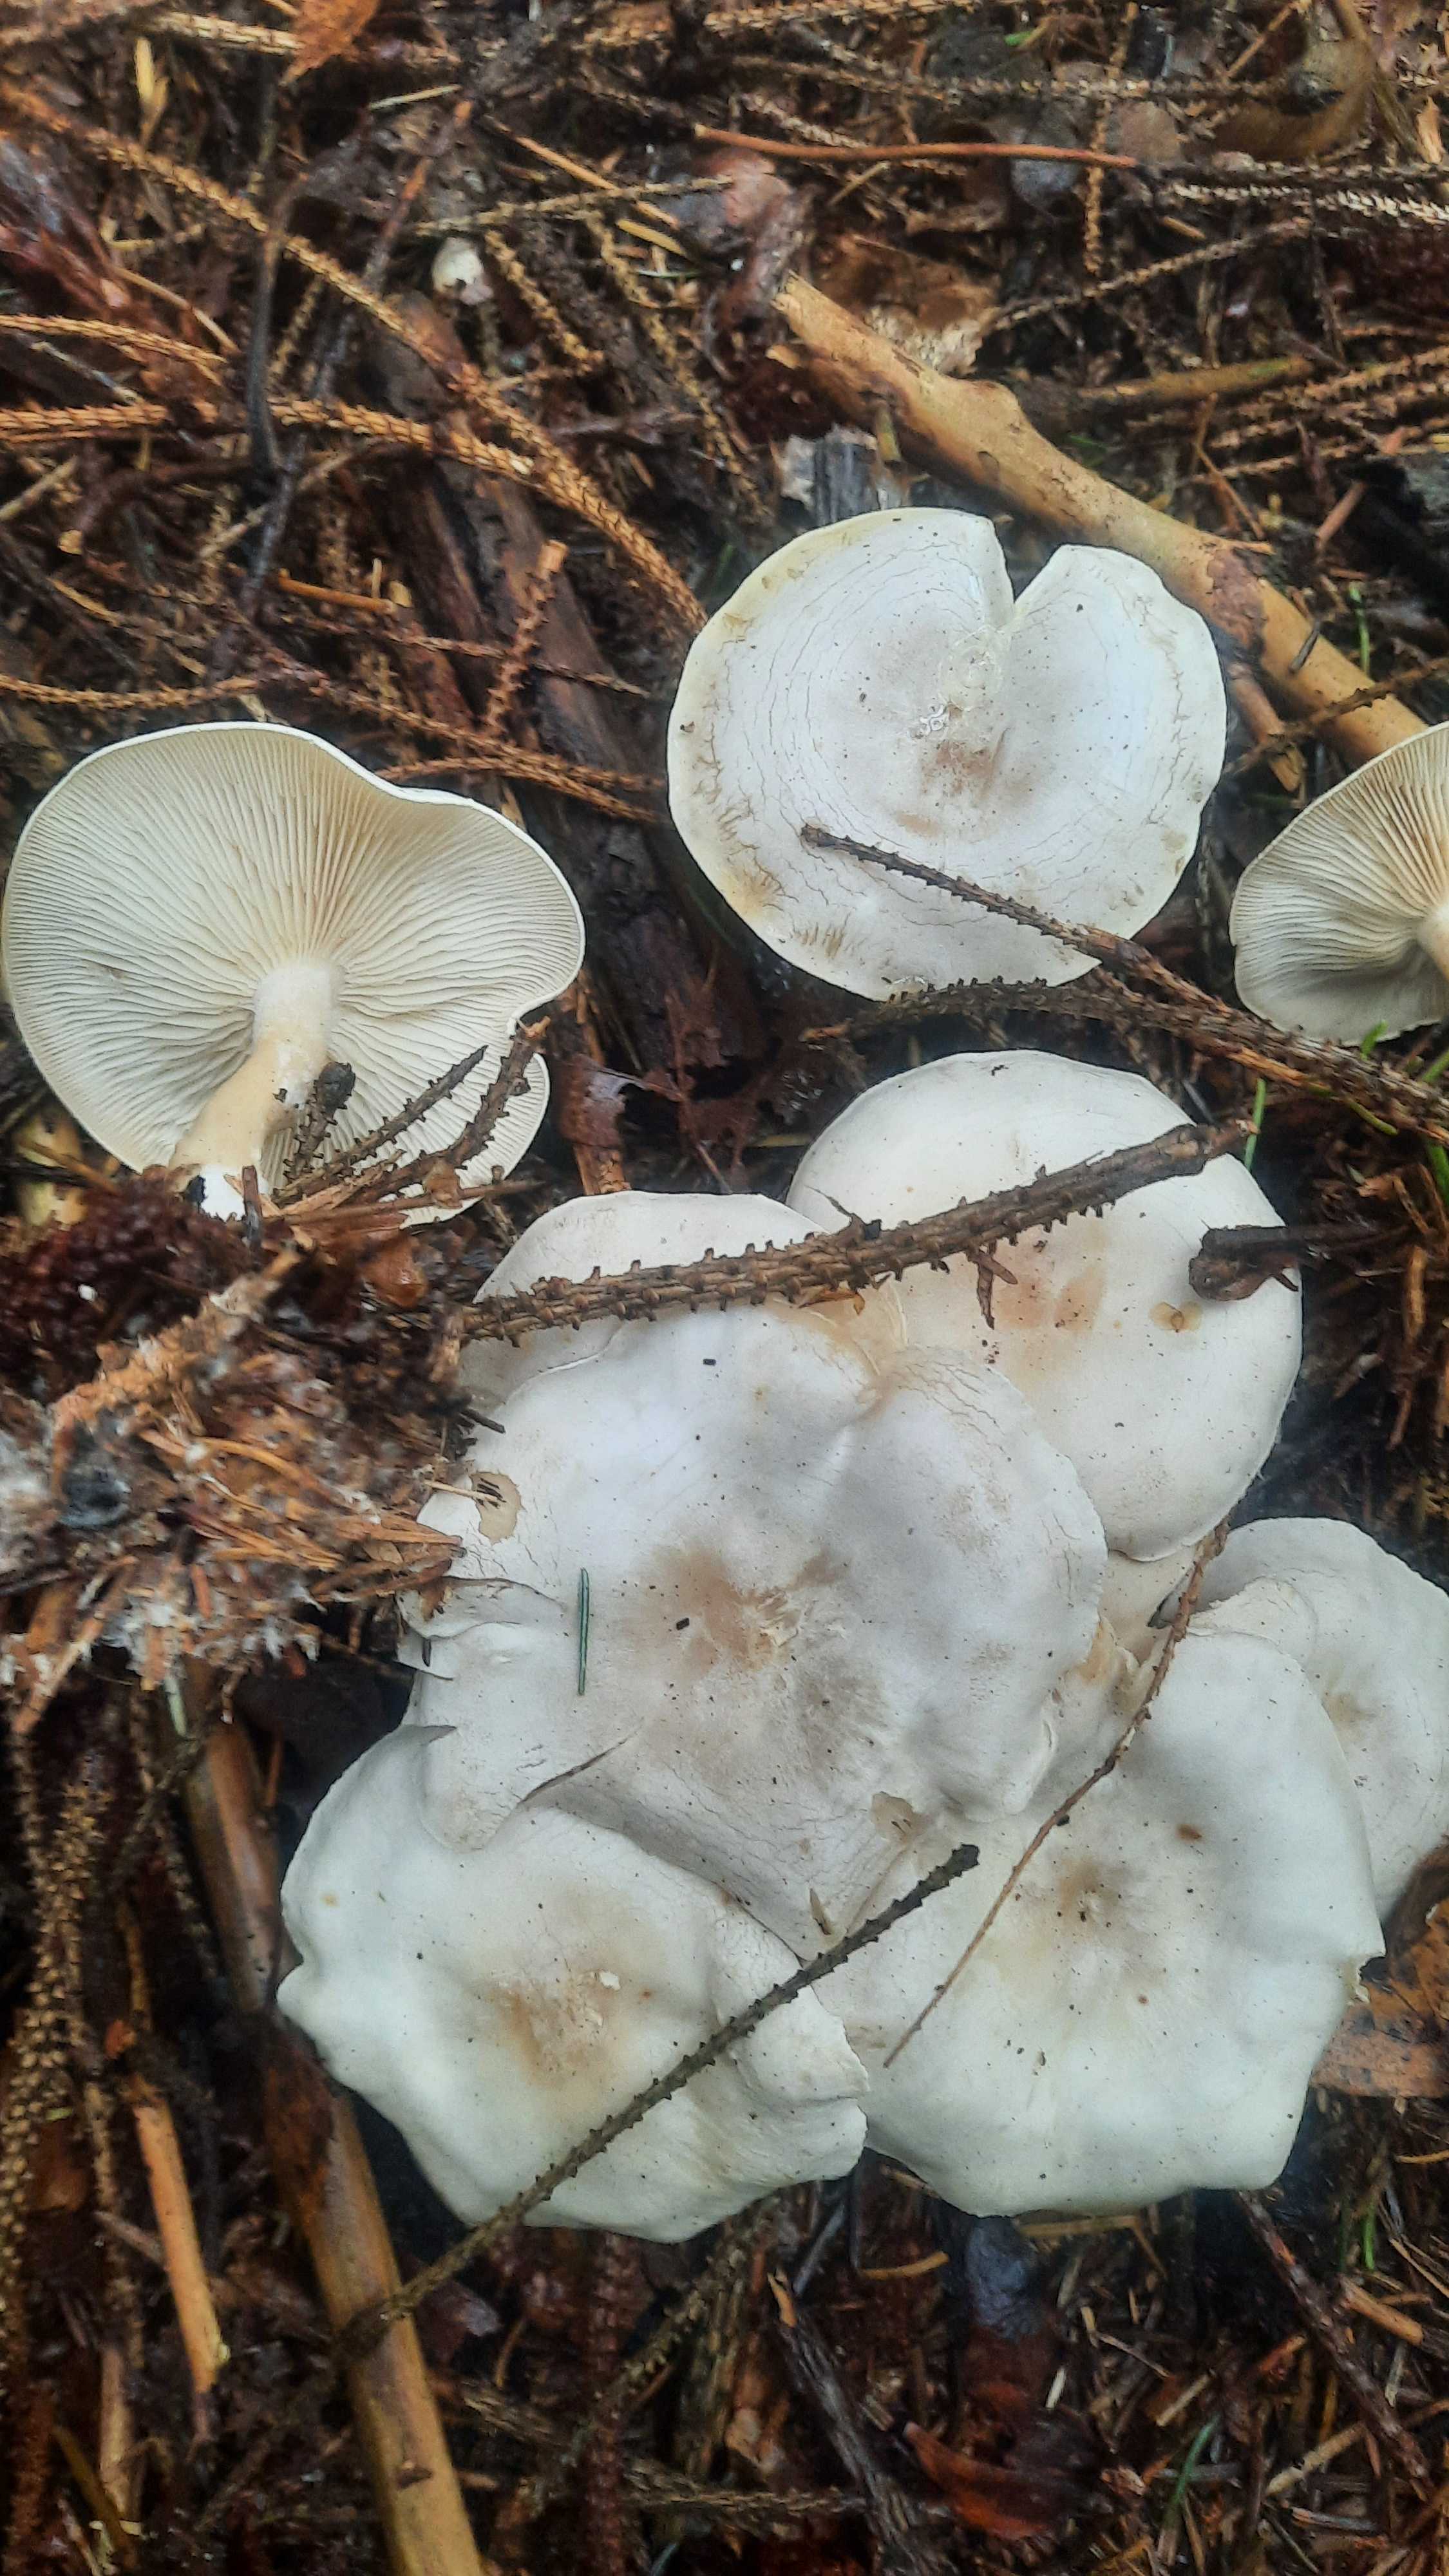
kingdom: Fungi
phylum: Basidiomycota
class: Agaricomycetes
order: Agaricales
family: Tricholomataceae
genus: Clitocybe
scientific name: Clitocybe
